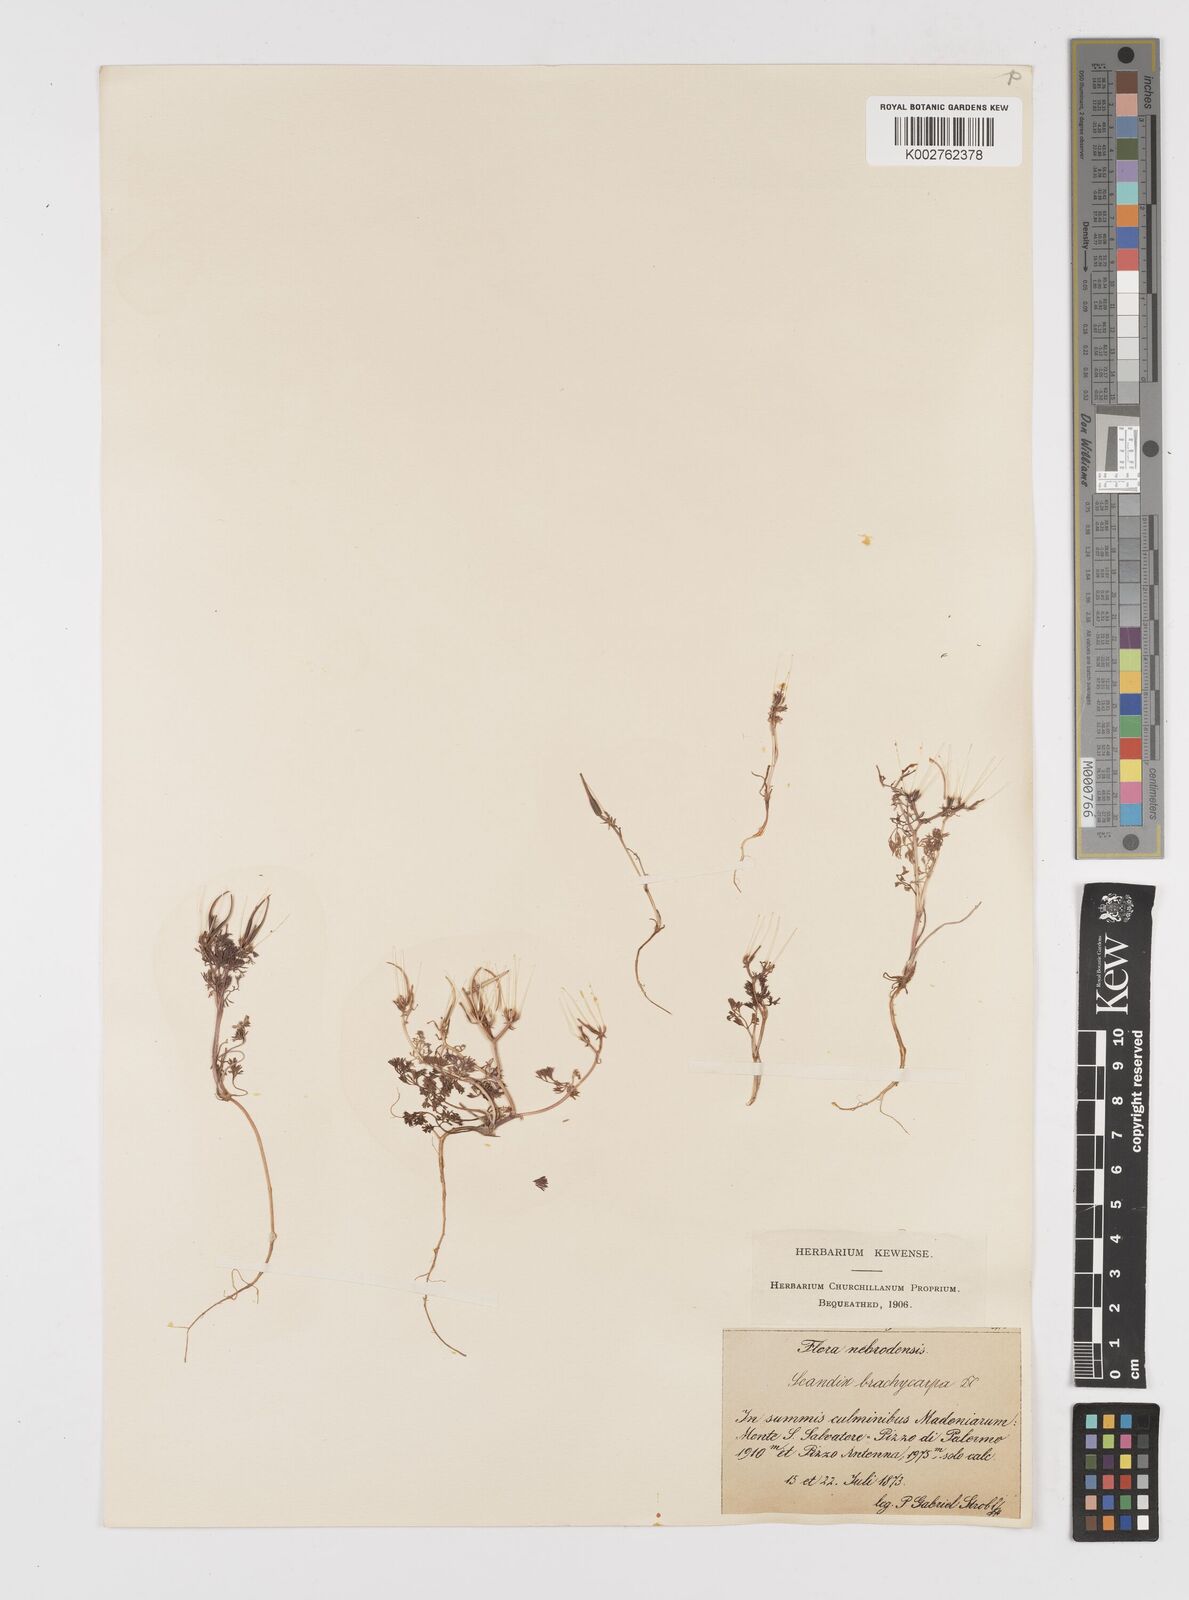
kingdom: Plantae
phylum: Tracheophyta
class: Magnoliopsida
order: Apiales
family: Apiaceae
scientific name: Apiaceae
